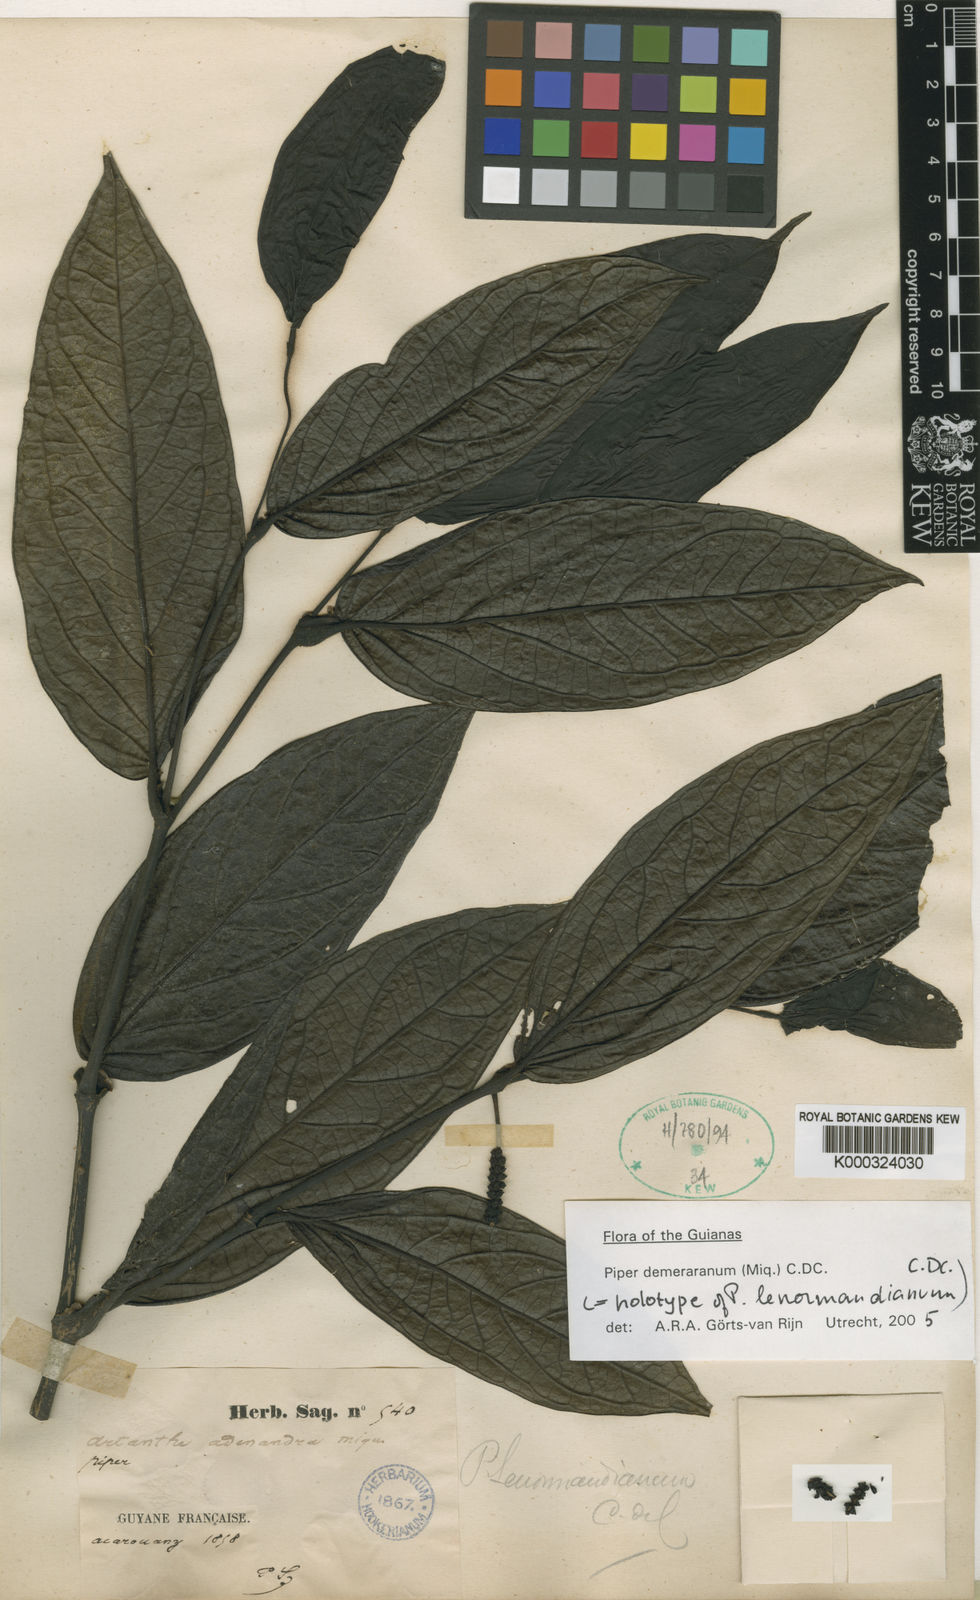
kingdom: Plantae
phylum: Tracheophyta
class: Magnoliopsida
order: Piperales
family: Piperaceae
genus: Piper
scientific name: Piper demeraranum
